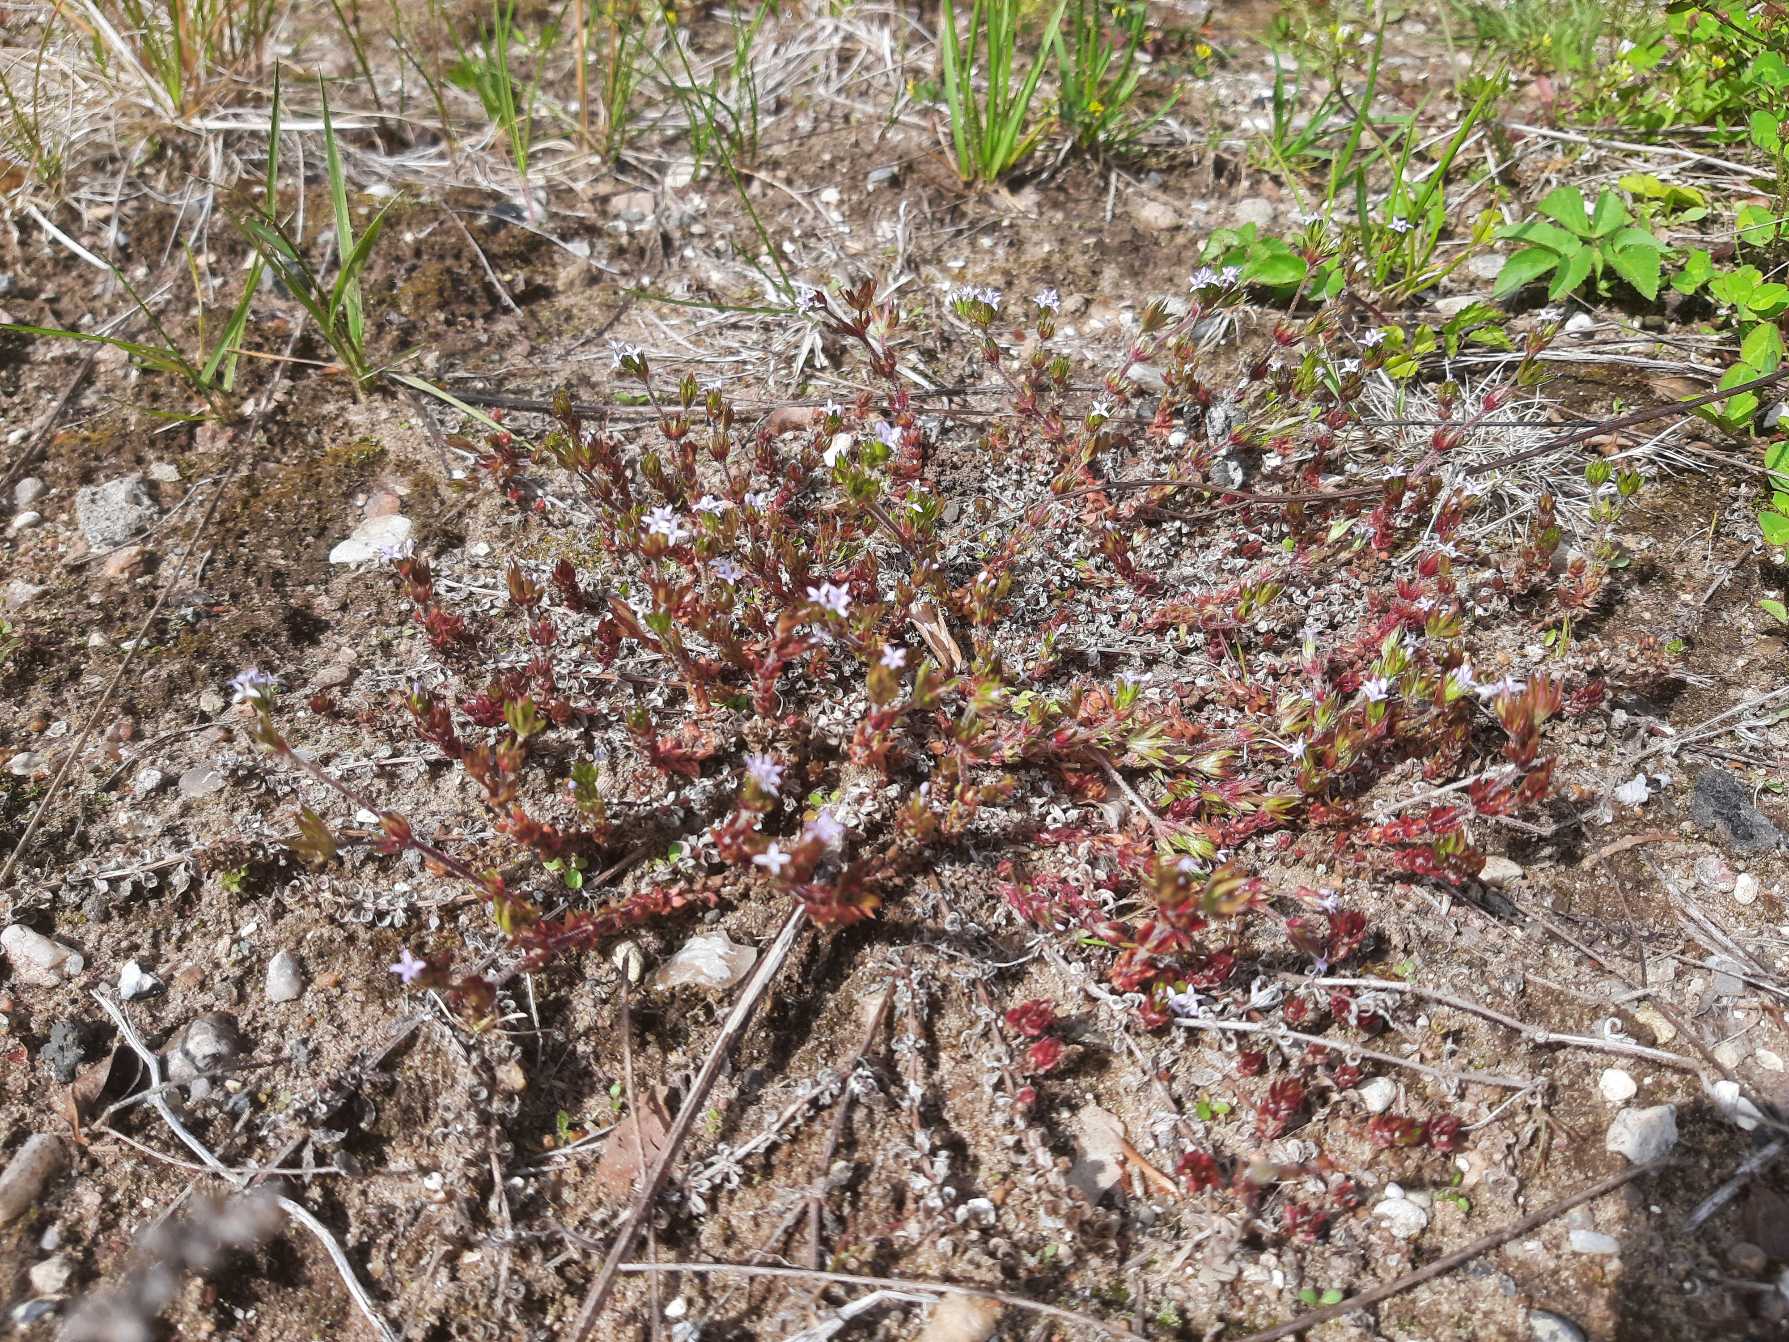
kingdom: Plantae
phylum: Tracheophyta
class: Magnoliopsida
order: Gentianales
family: Rubiaceae
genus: Sherardia
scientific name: Sherardia arvensis
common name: Blåstjerne
